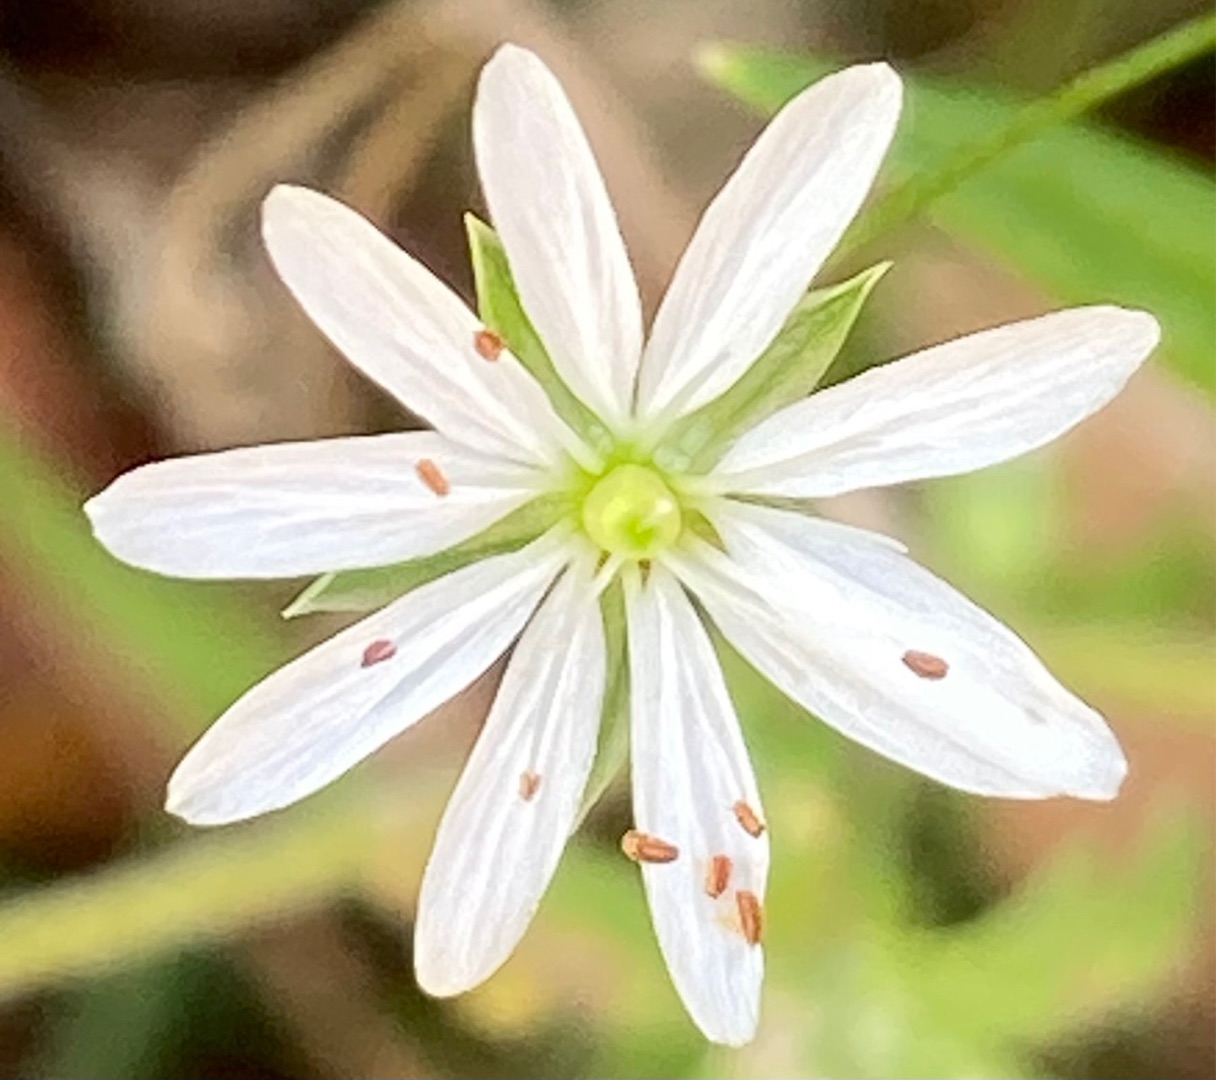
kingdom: Plantae
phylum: Tracheophyta
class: Magnoliopsida
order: Caryophyllales
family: Caryophyllaceae
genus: Stellaria
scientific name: Stellaria graminea
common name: Græsbladet fladstjerne
